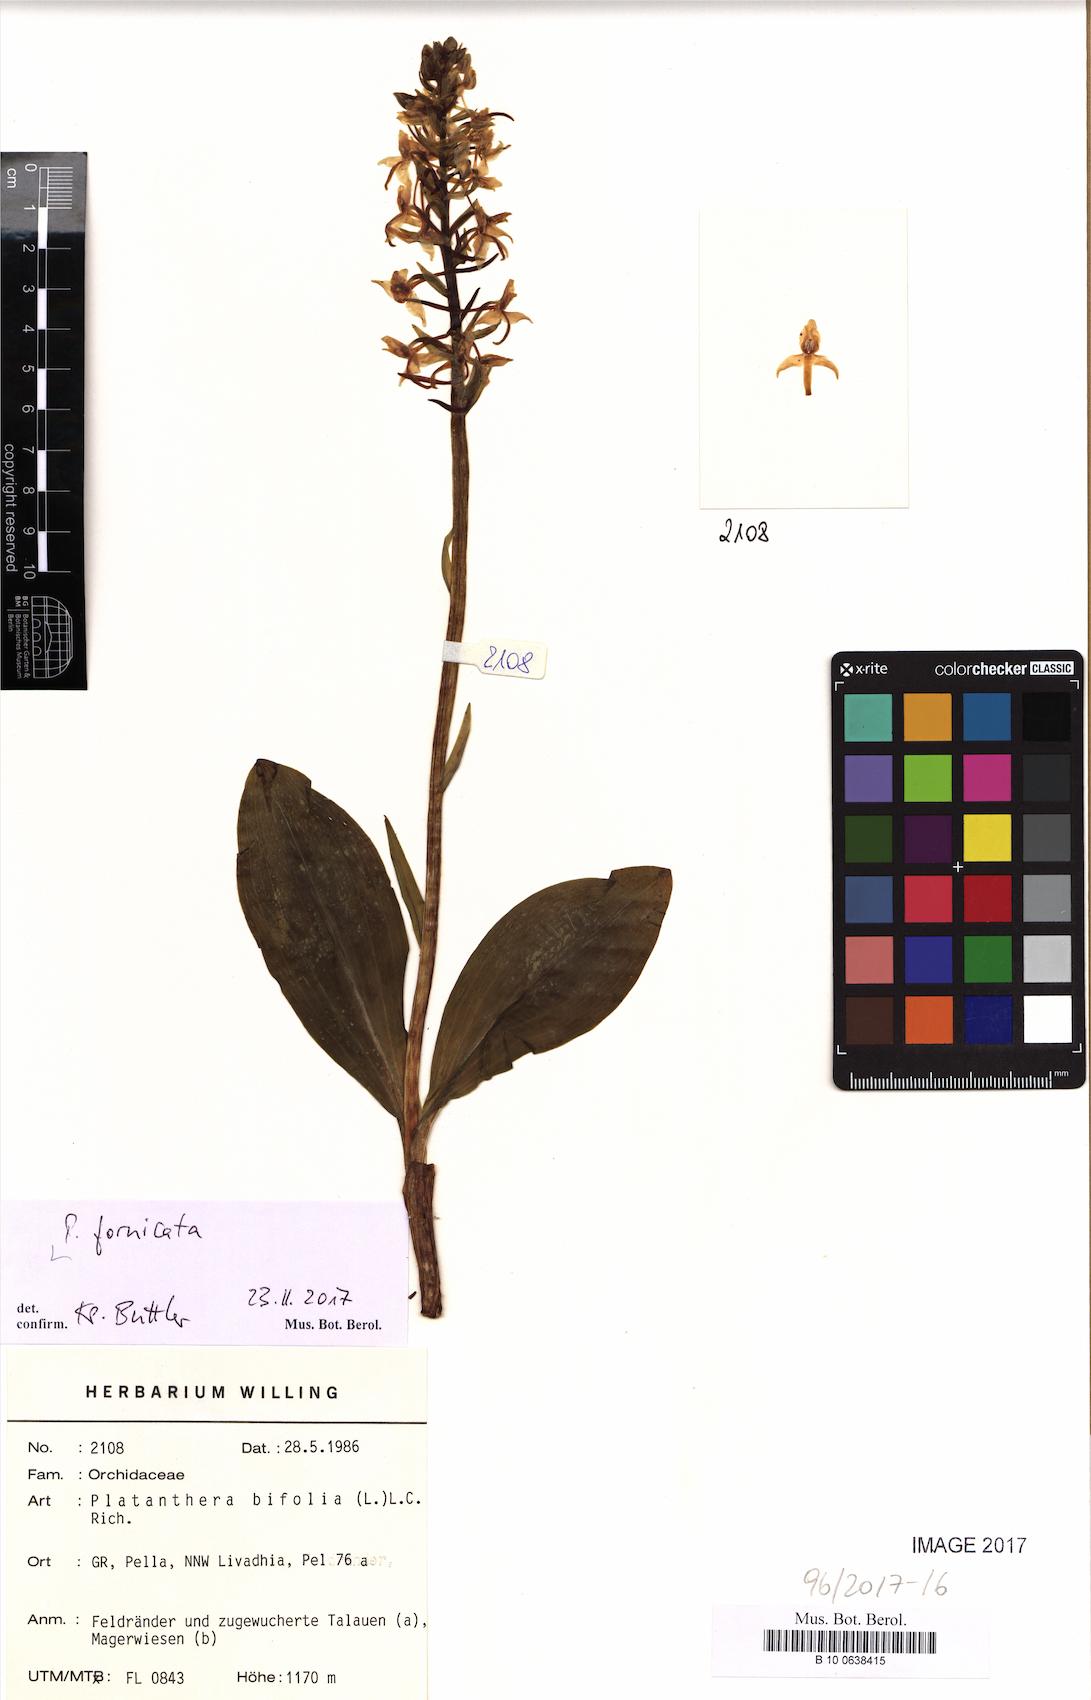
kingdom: Plantae
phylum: Tracheophyta
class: Liliopsida
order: Asparagales
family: Orchidaceae
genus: Platanthera
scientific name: Platanthera bifolia
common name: Lesser butterfly-orchid
